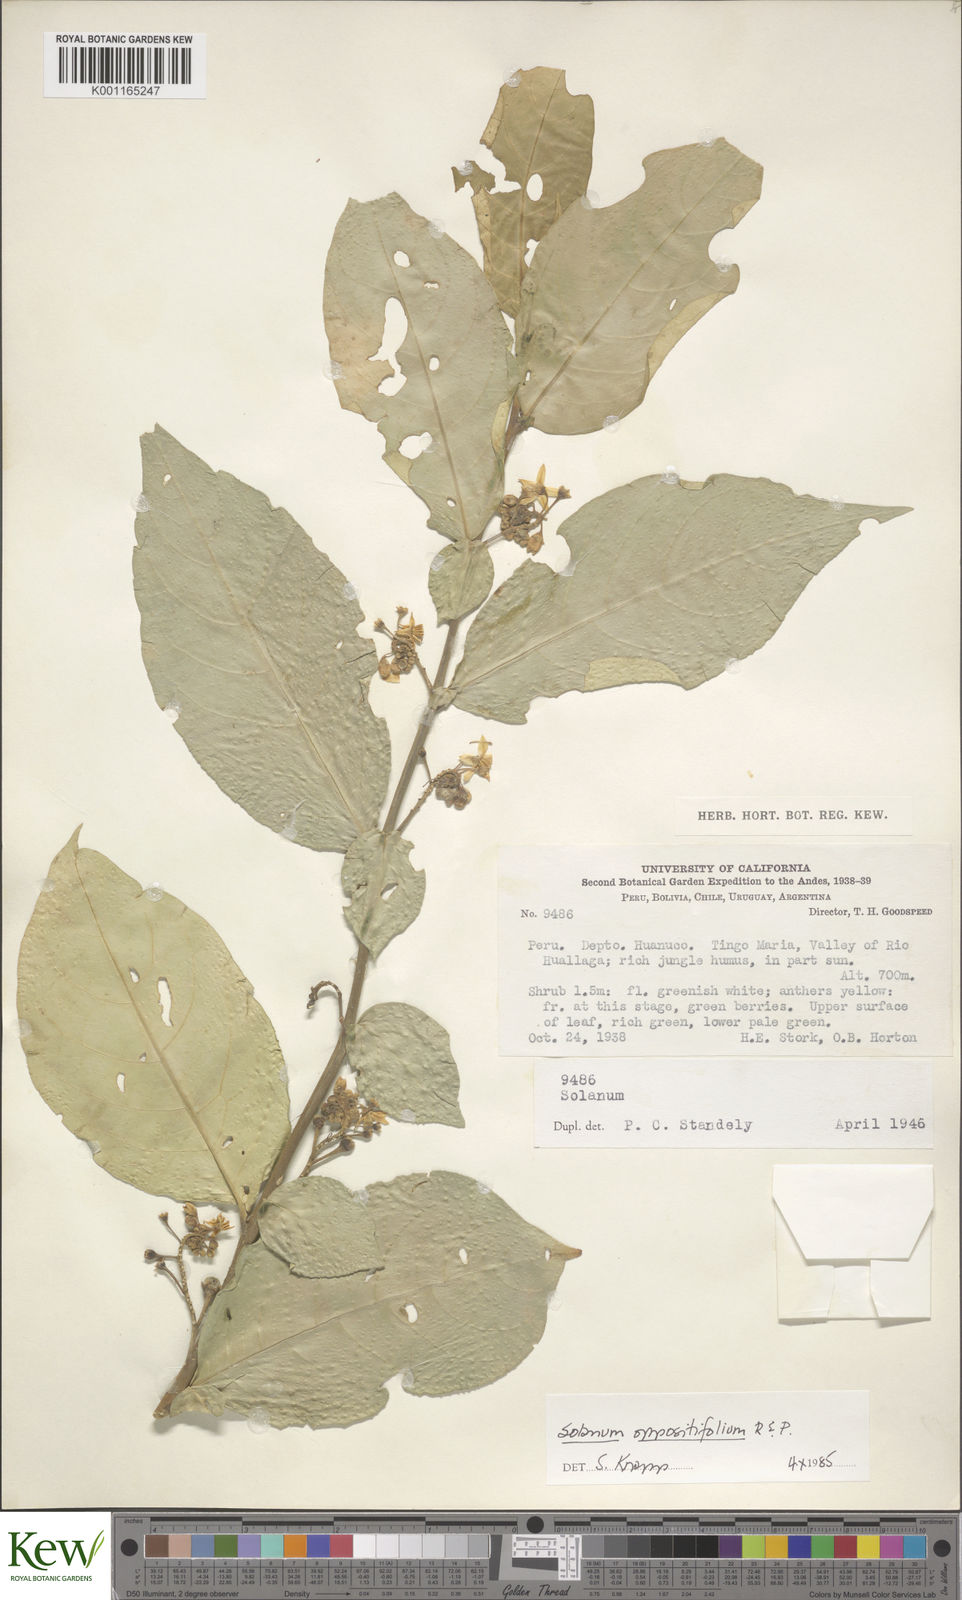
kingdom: Plantae
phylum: Tracheophyta
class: Magnoliopsida
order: Solanales
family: Solanaceae
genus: Solanum
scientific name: Solanum oppositifolium
